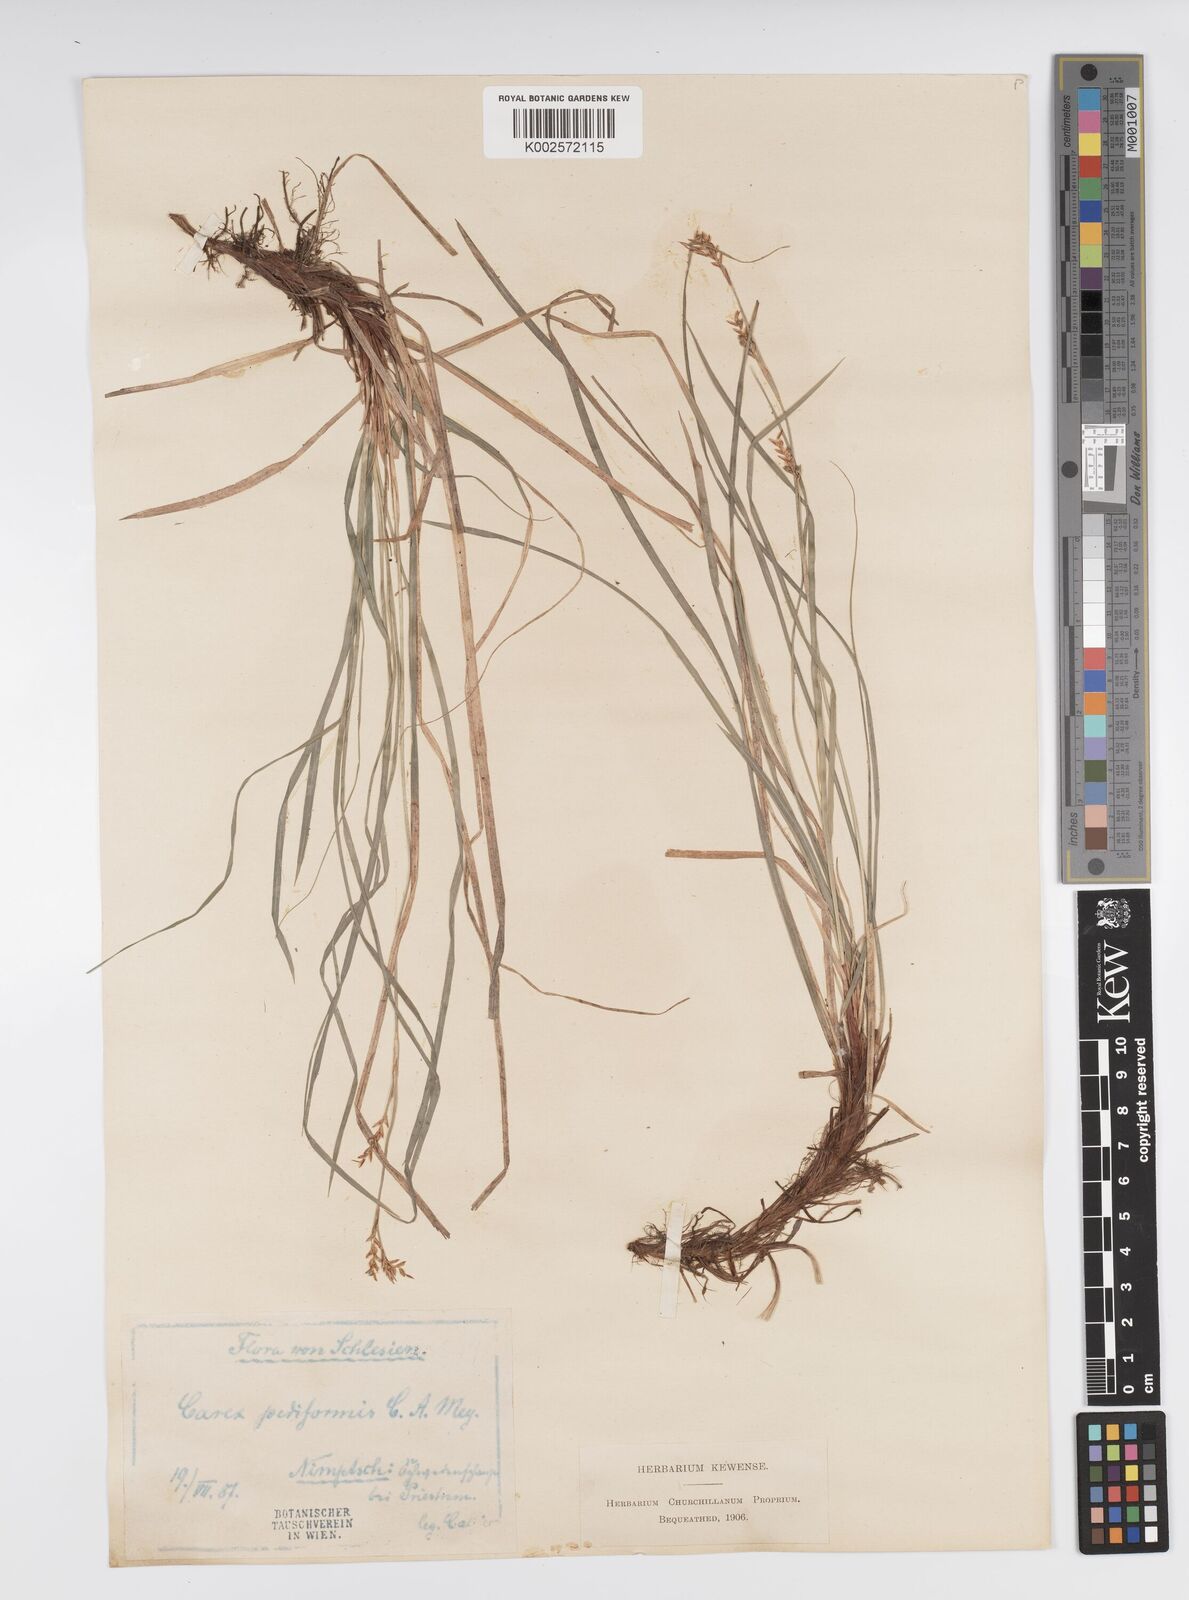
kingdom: Plantae
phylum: Tracheophyta
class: Liliopsida
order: Poales
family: Cyperaceae
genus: Carex
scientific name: Carex pediformis
